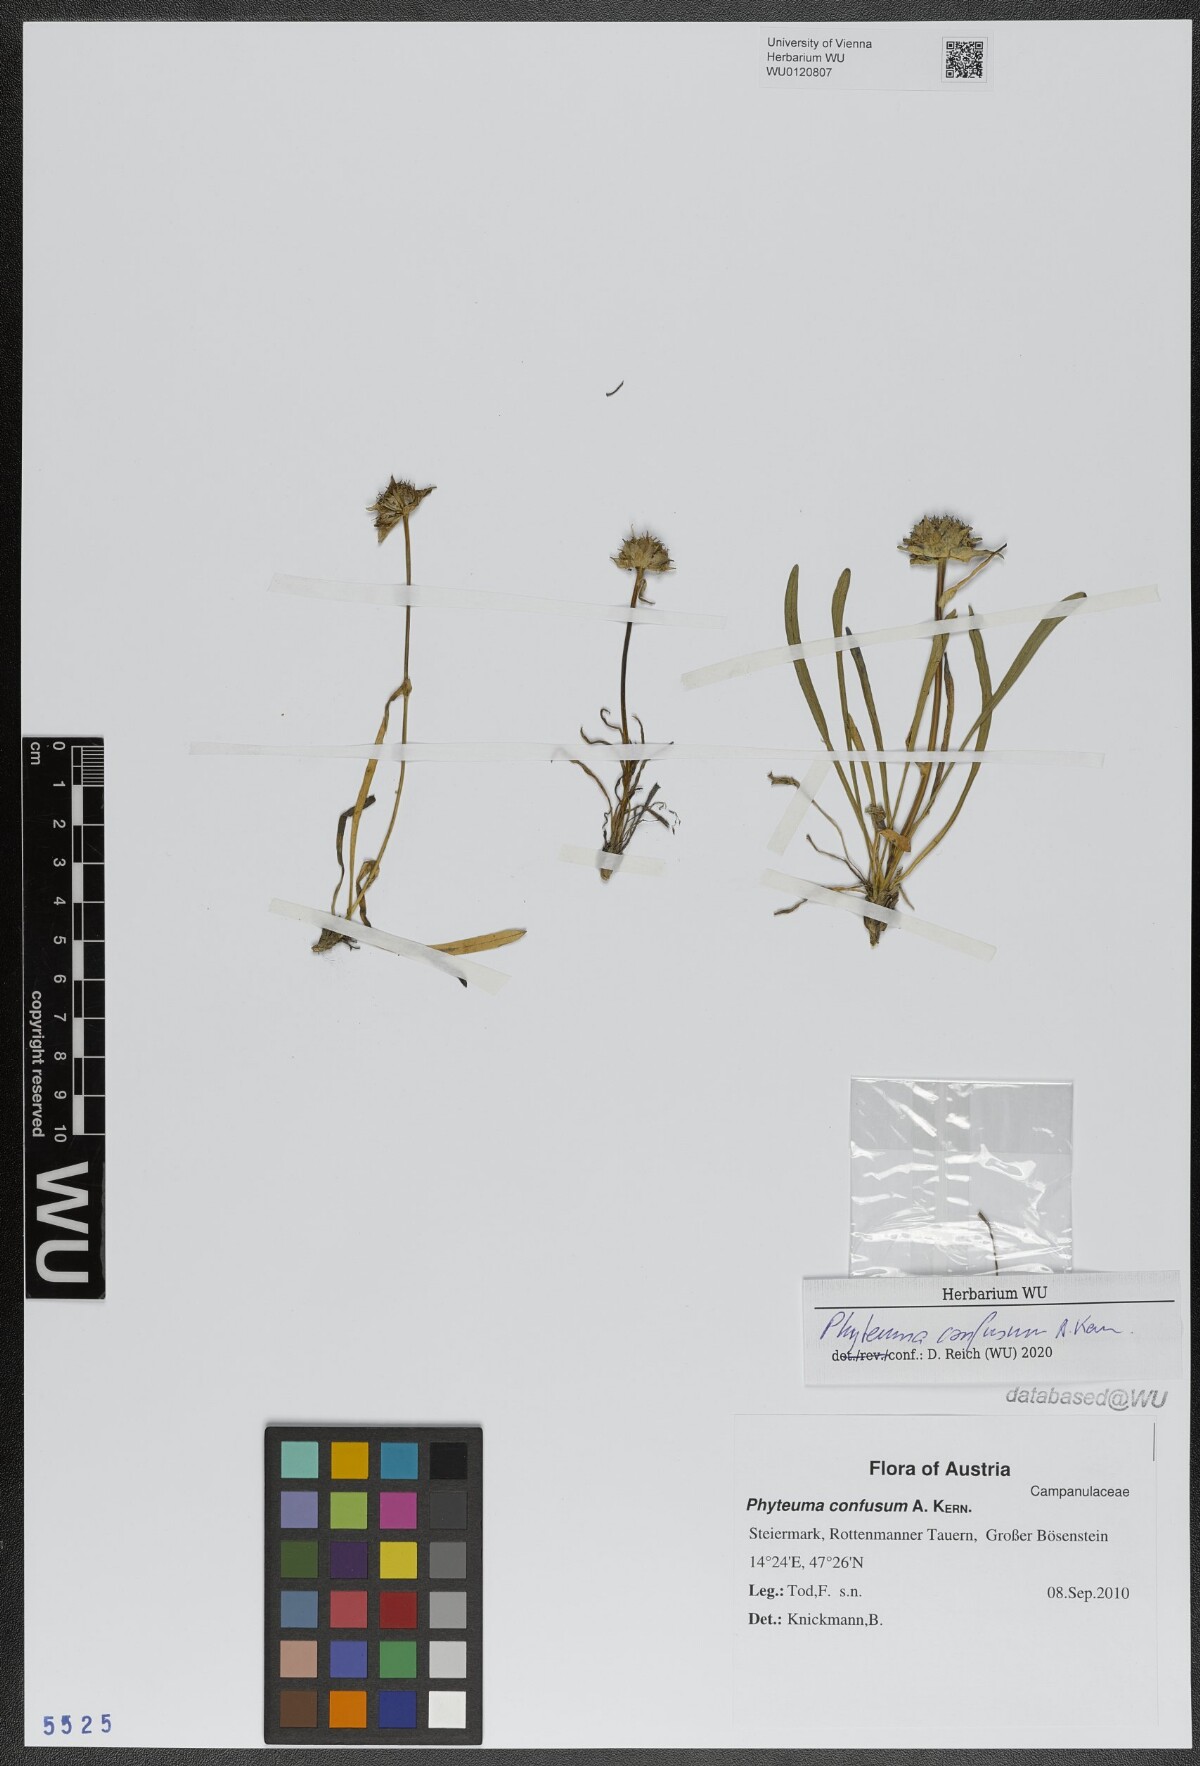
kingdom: Plantae
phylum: Tracheophyta
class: Magnoliopsida
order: Asterales
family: Campanulaceae
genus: Phyteuma
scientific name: Phyteuma confusum
